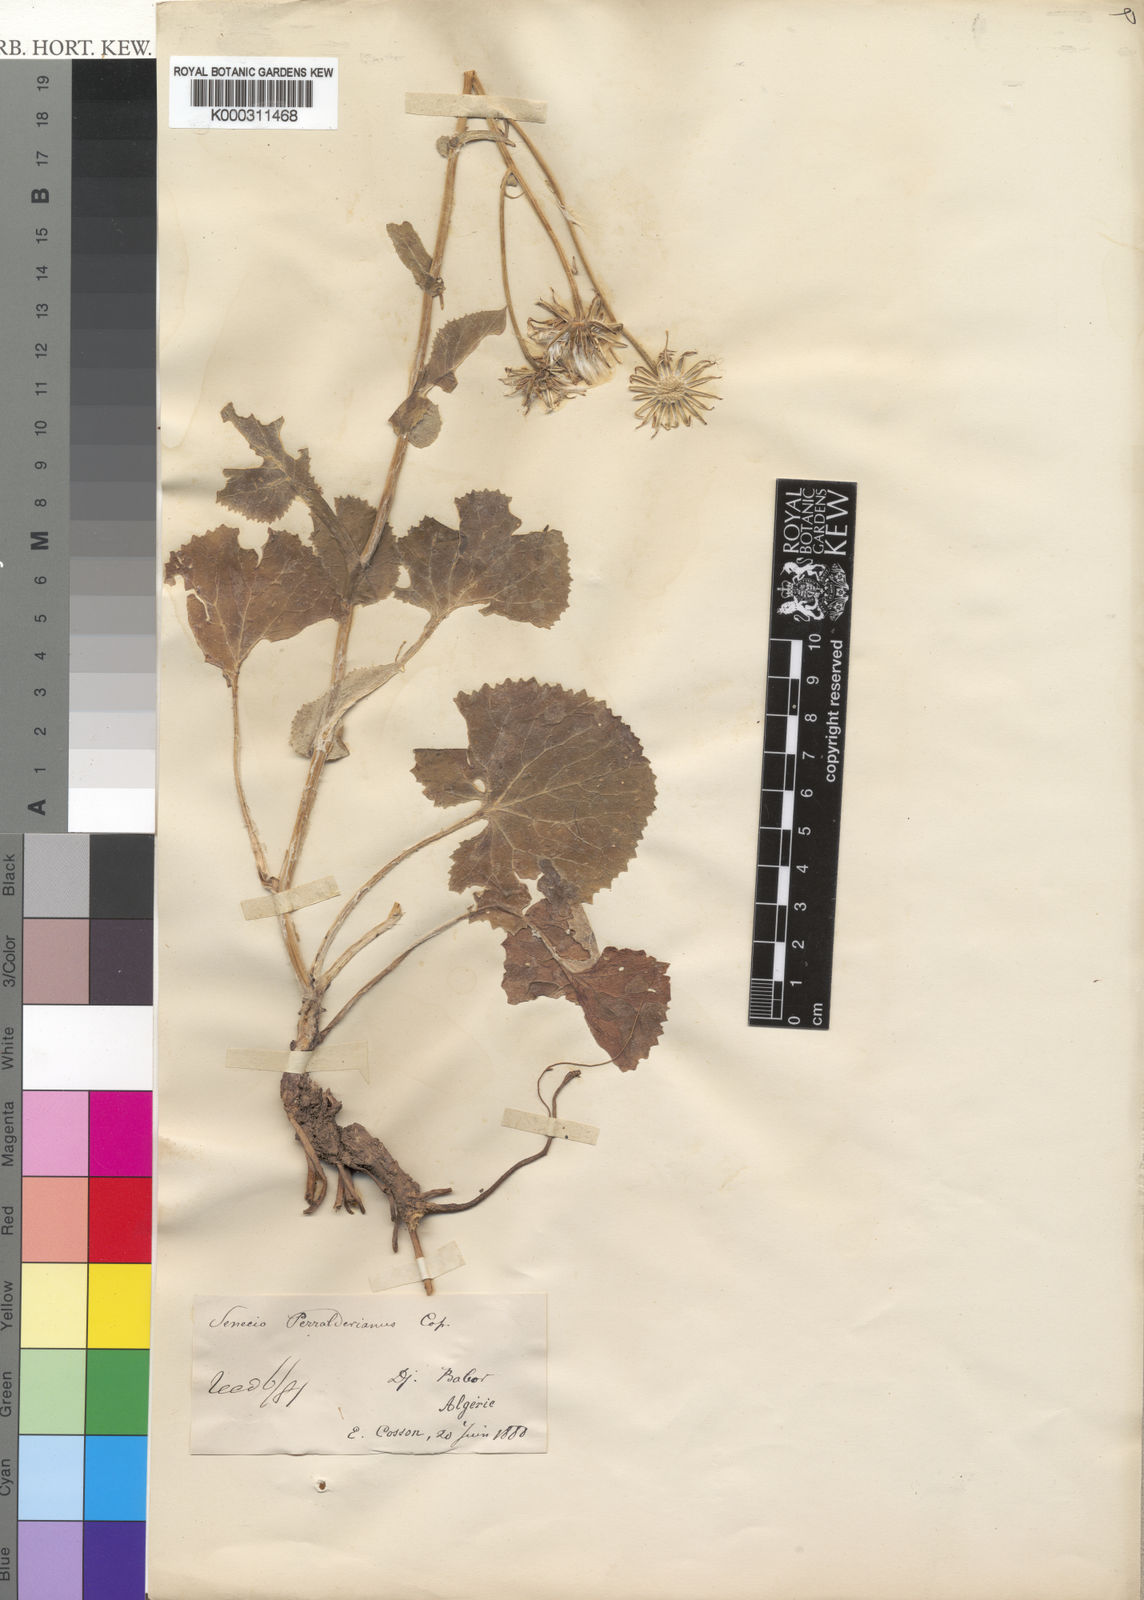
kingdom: Plantae
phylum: Tracheophyta
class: Magnoliopsida
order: Asterales
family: Asteraceae
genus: Senecio
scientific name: Senecio perralderianus
